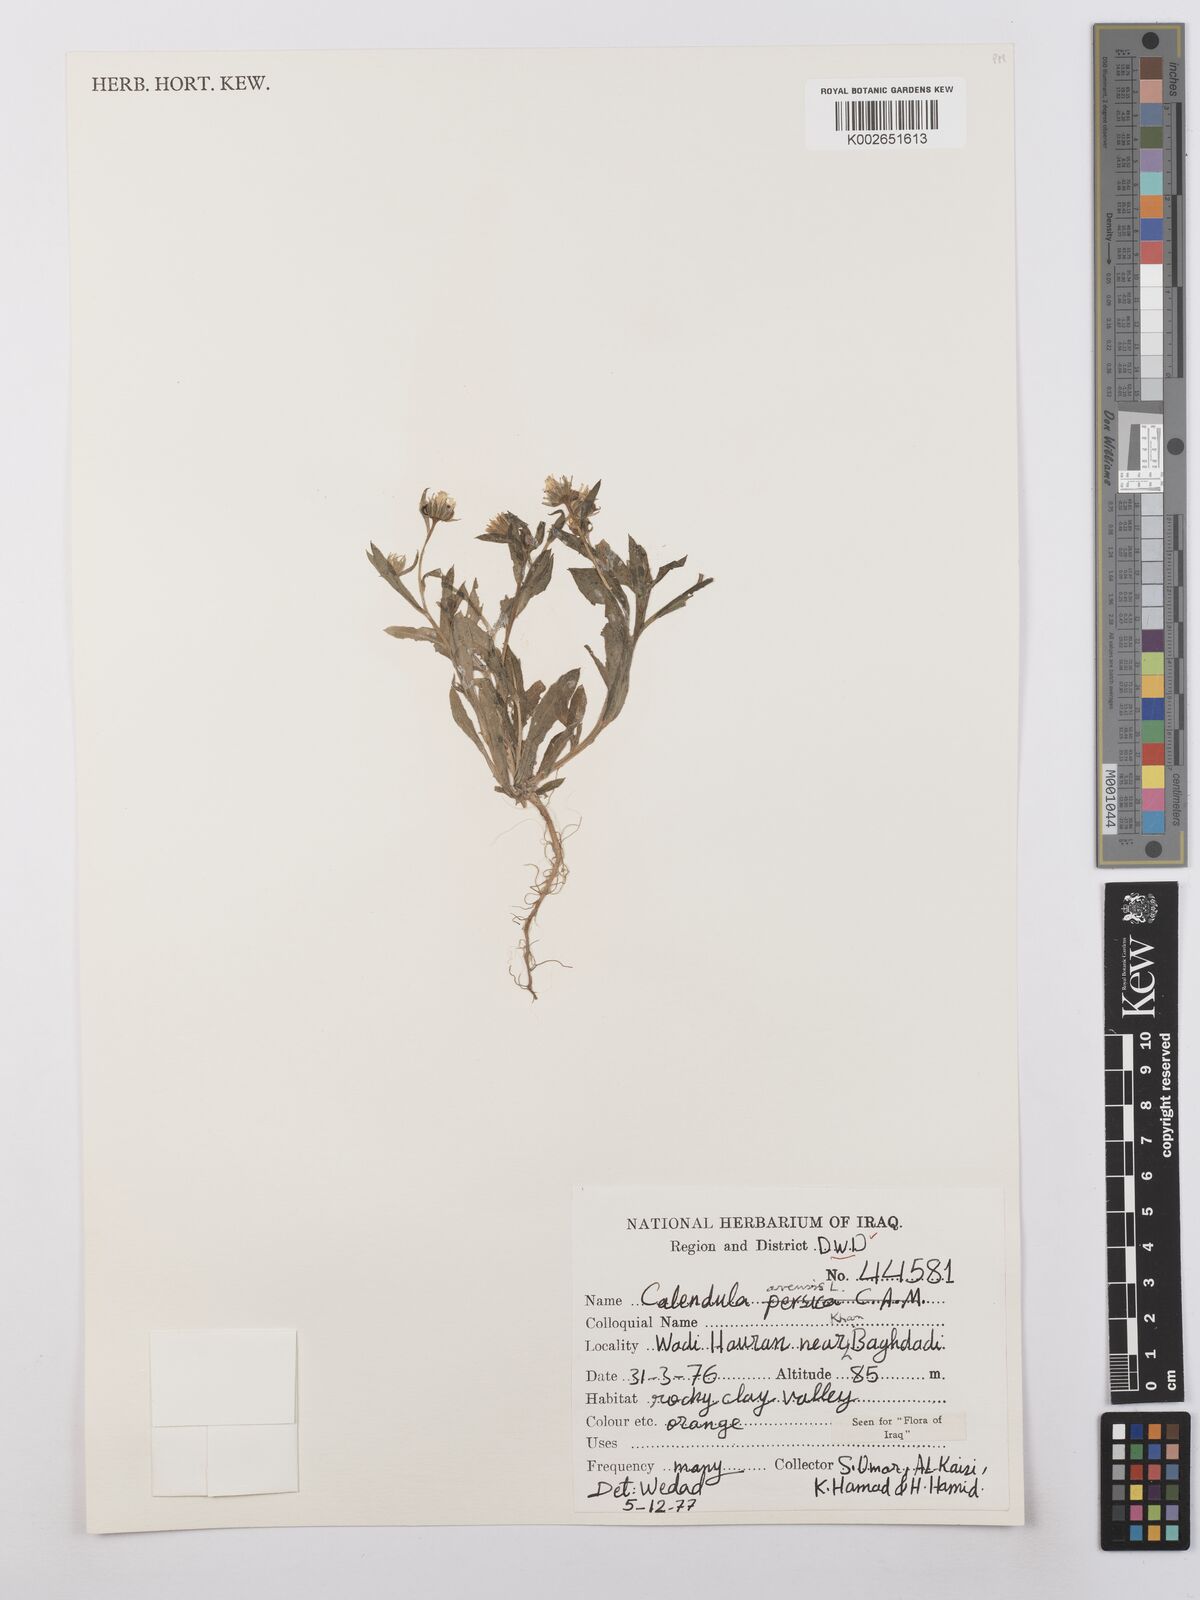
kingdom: Plantae
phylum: Tracheophyta
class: Magnoliopsida
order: Asterales
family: Asteraceae
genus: Calendula
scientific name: Calendula arvensis
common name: Field marigold
